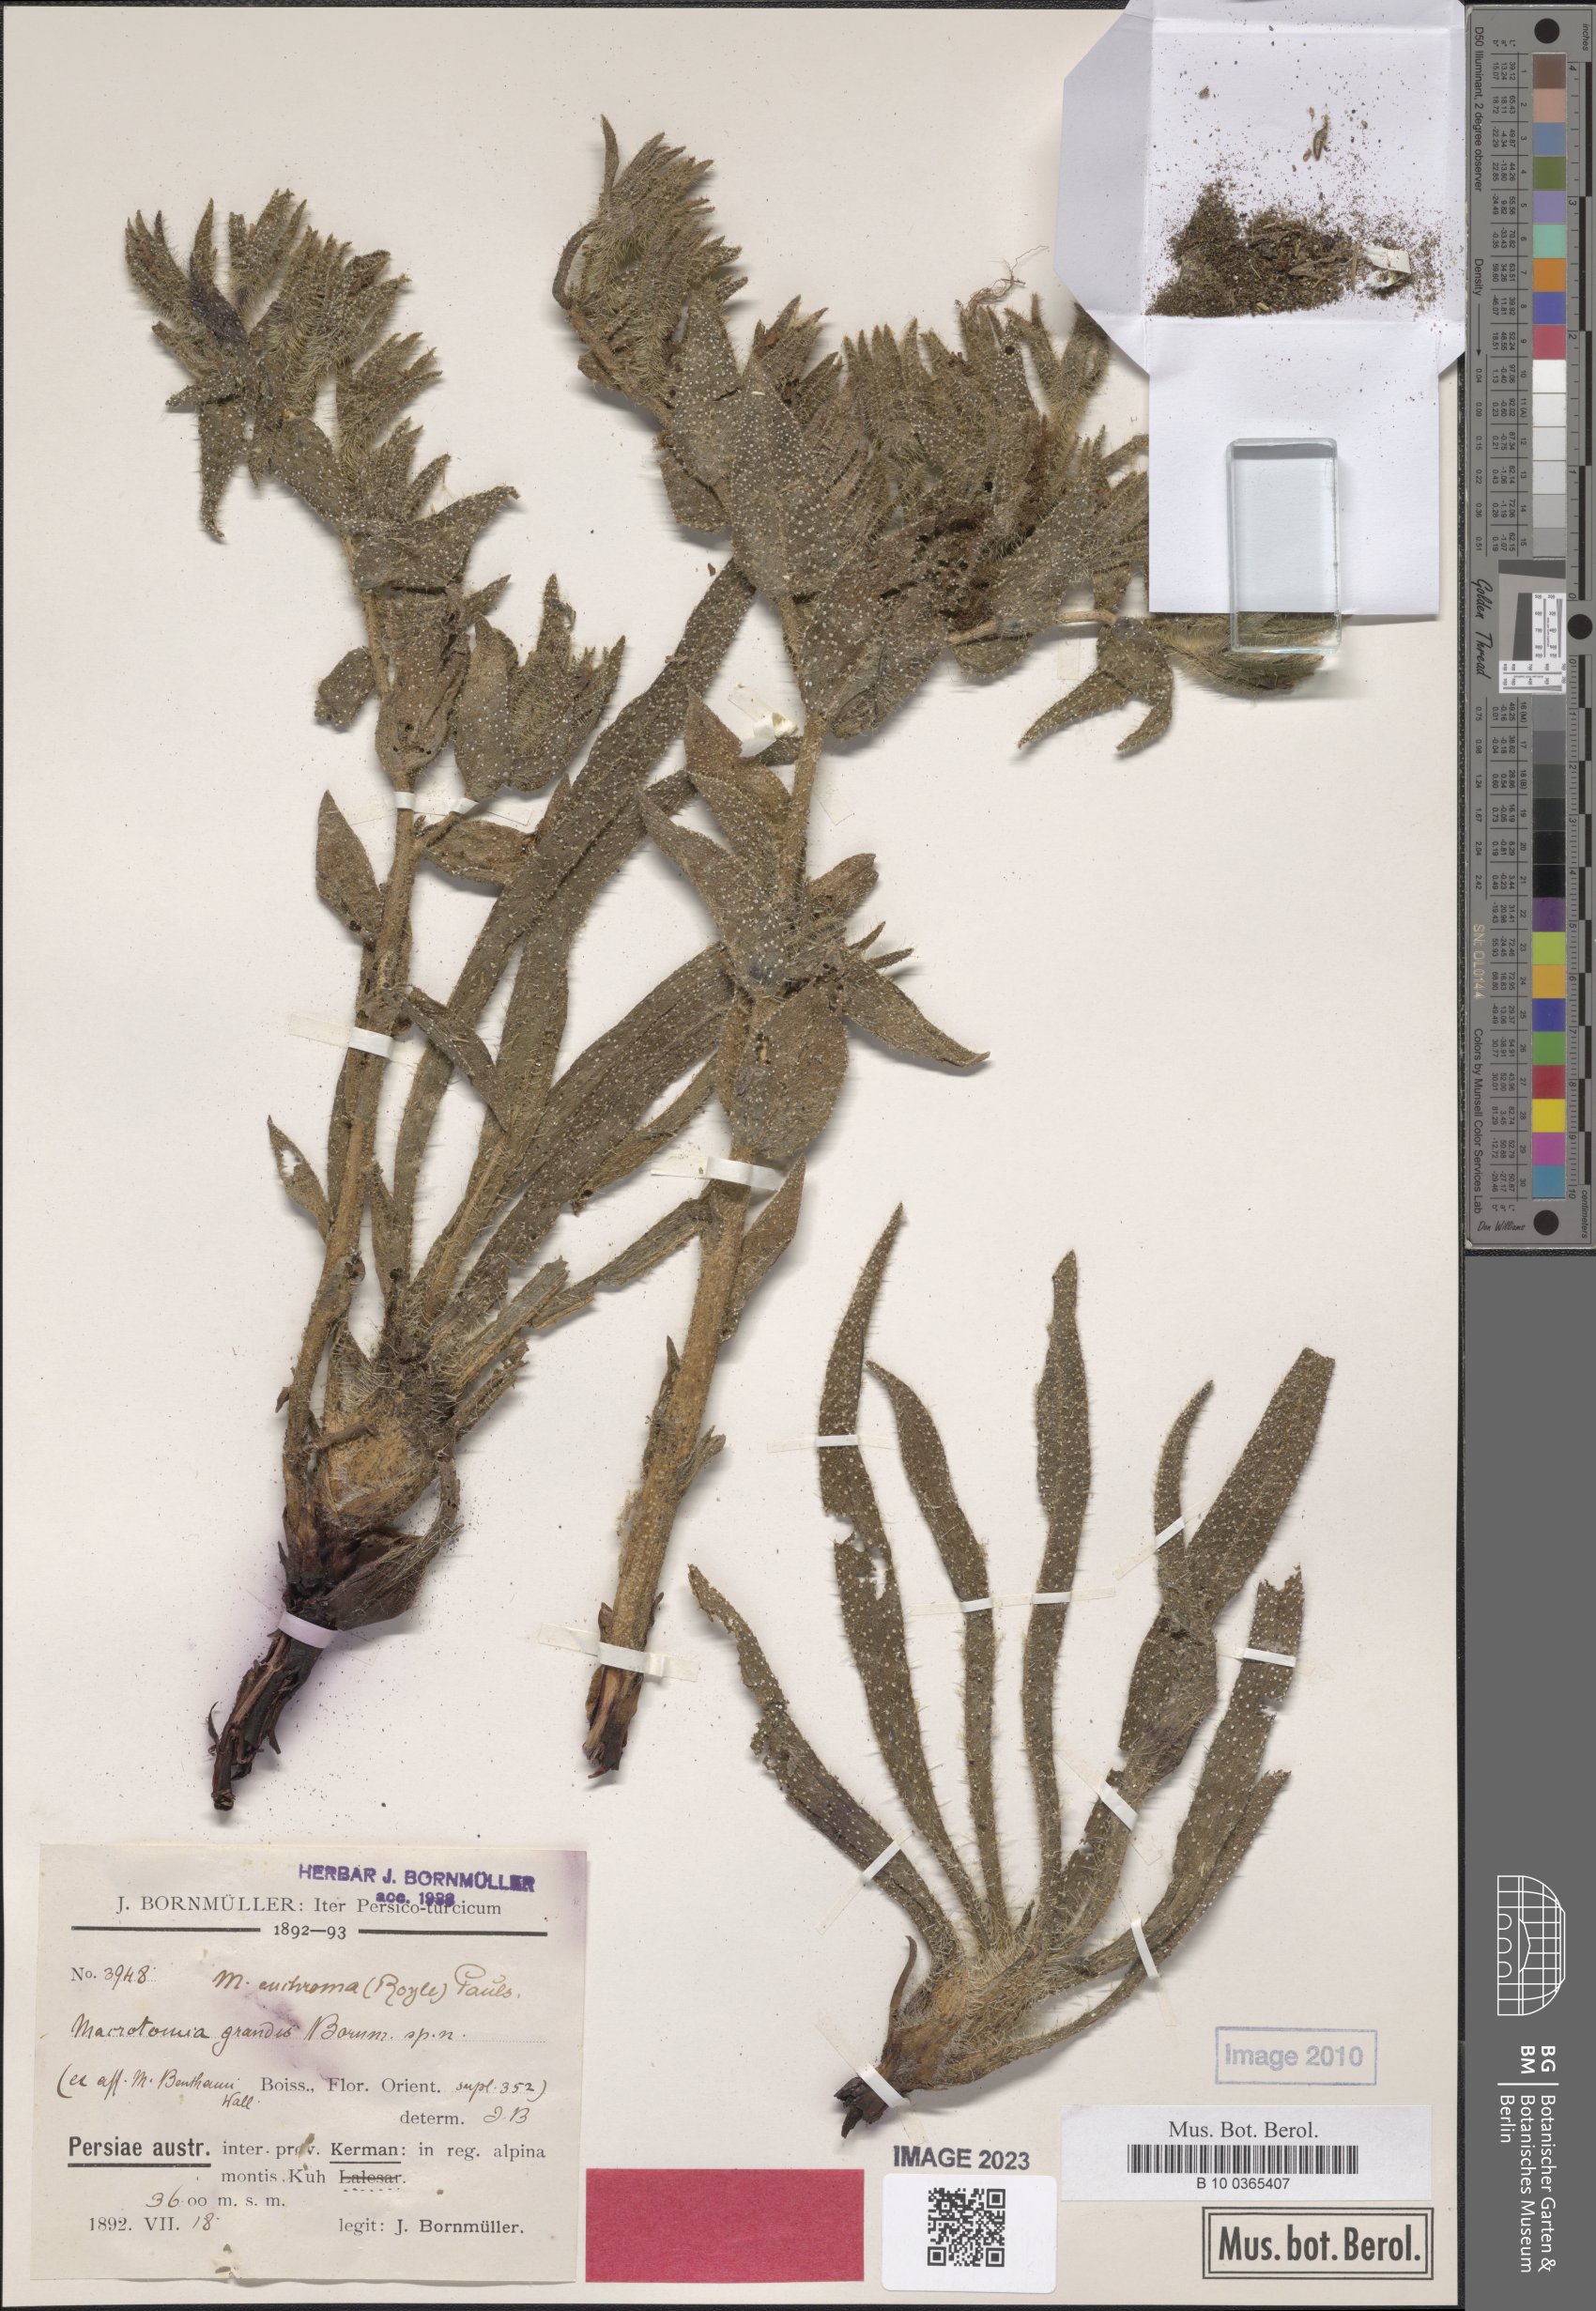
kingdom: Plantae
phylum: Tracheophyta
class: Magnoliopsida
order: Boraginales
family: Boraginaceae
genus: Arnebia
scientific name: Arnebia euchroma
